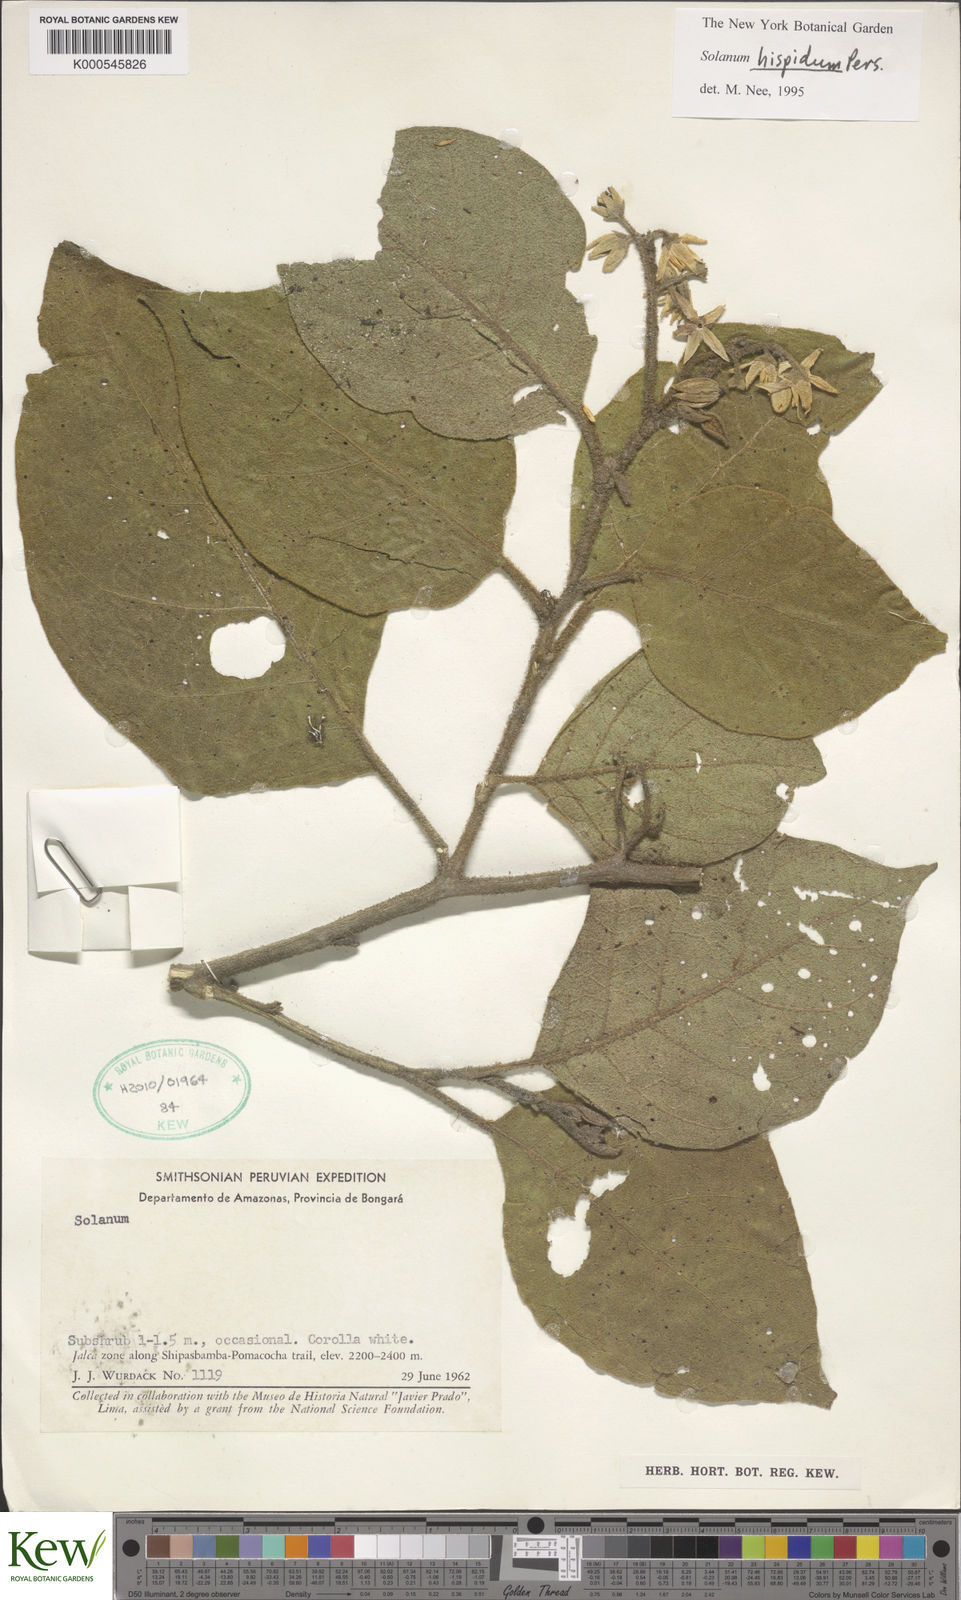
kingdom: Plantae
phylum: Tracheophyta
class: Magnoliopsida
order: Solanales
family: Solanaceae
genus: Solanum
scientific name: Solanum asperolanatum
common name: Devil's-fig
